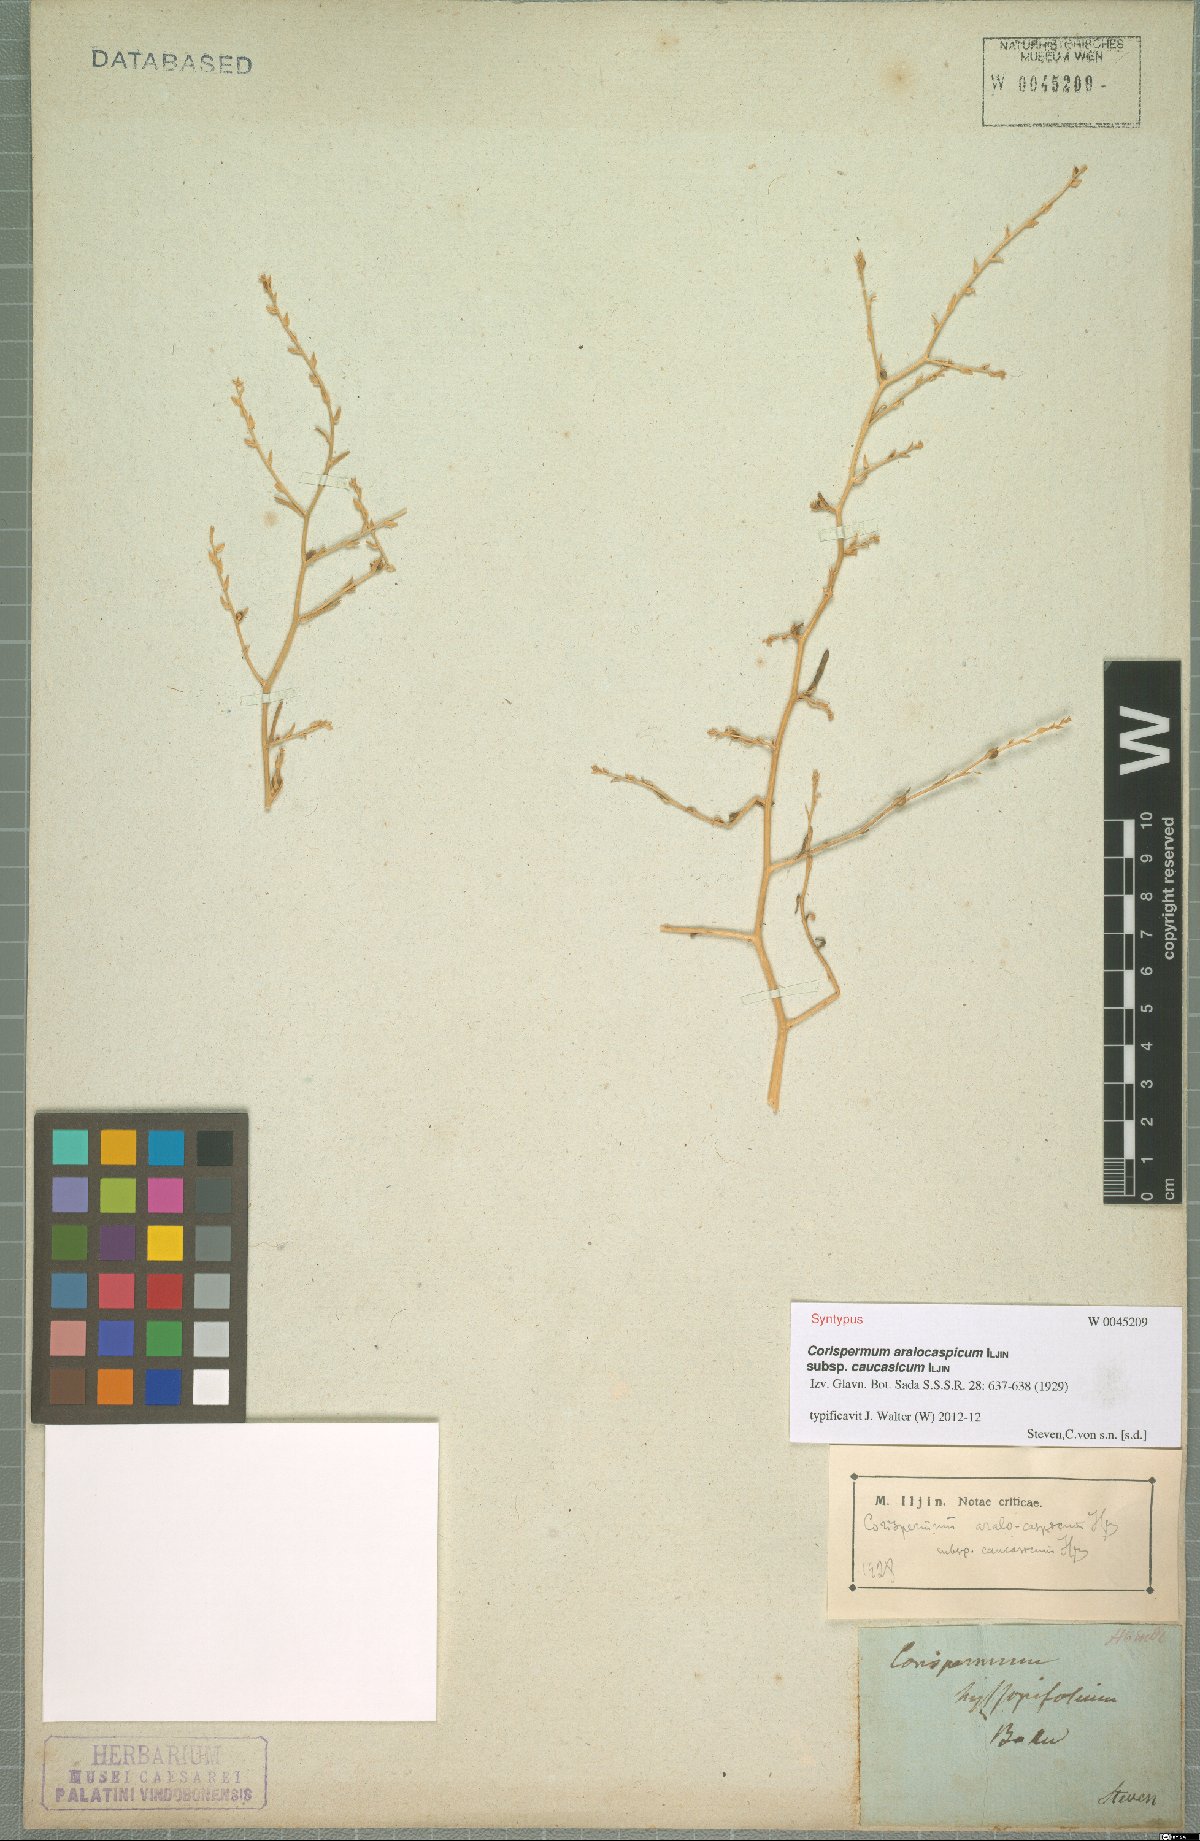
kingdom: Plantae
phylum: Tracheophyta
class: Magnoliopsida
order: Caryophyllales
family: Amaranthaceae
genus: Corispermum
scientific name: Corispermum aralocaspicum
